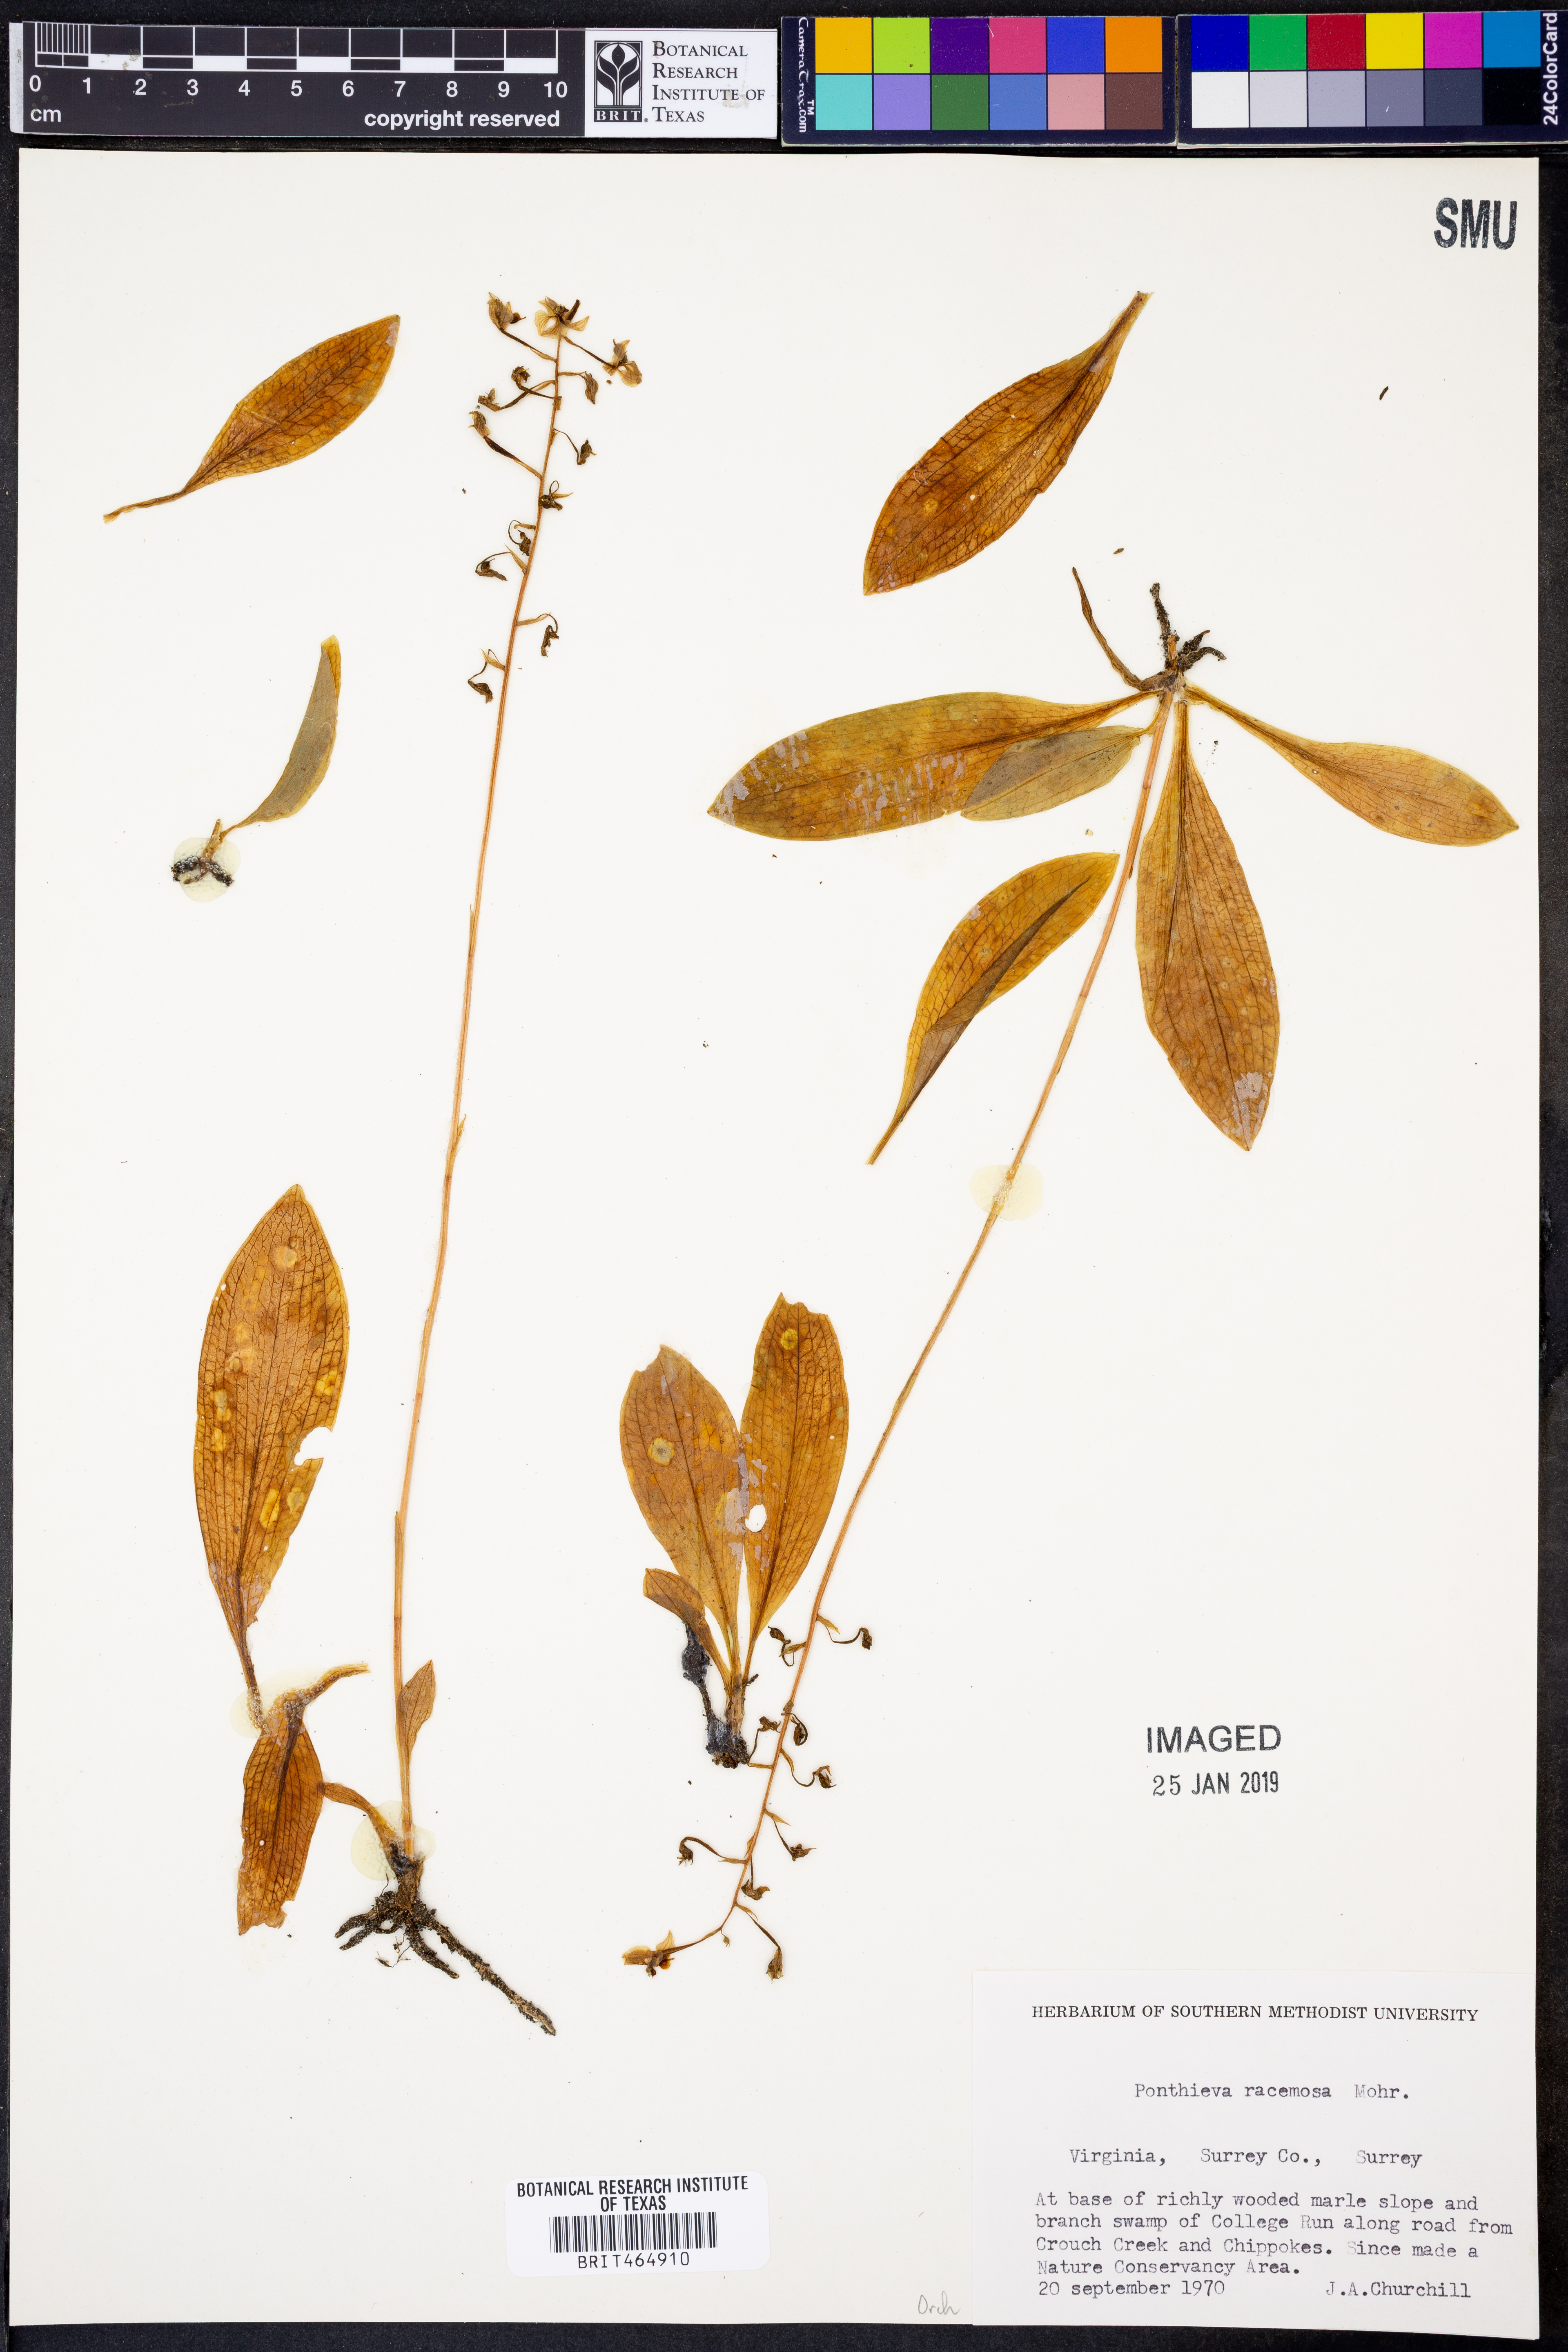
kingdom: Plantae
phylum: Tracheophyta
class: Liliopsida
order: Asparagales
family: Orchidaceae
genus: Ponthieva
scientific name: Ponthieva racemosa
